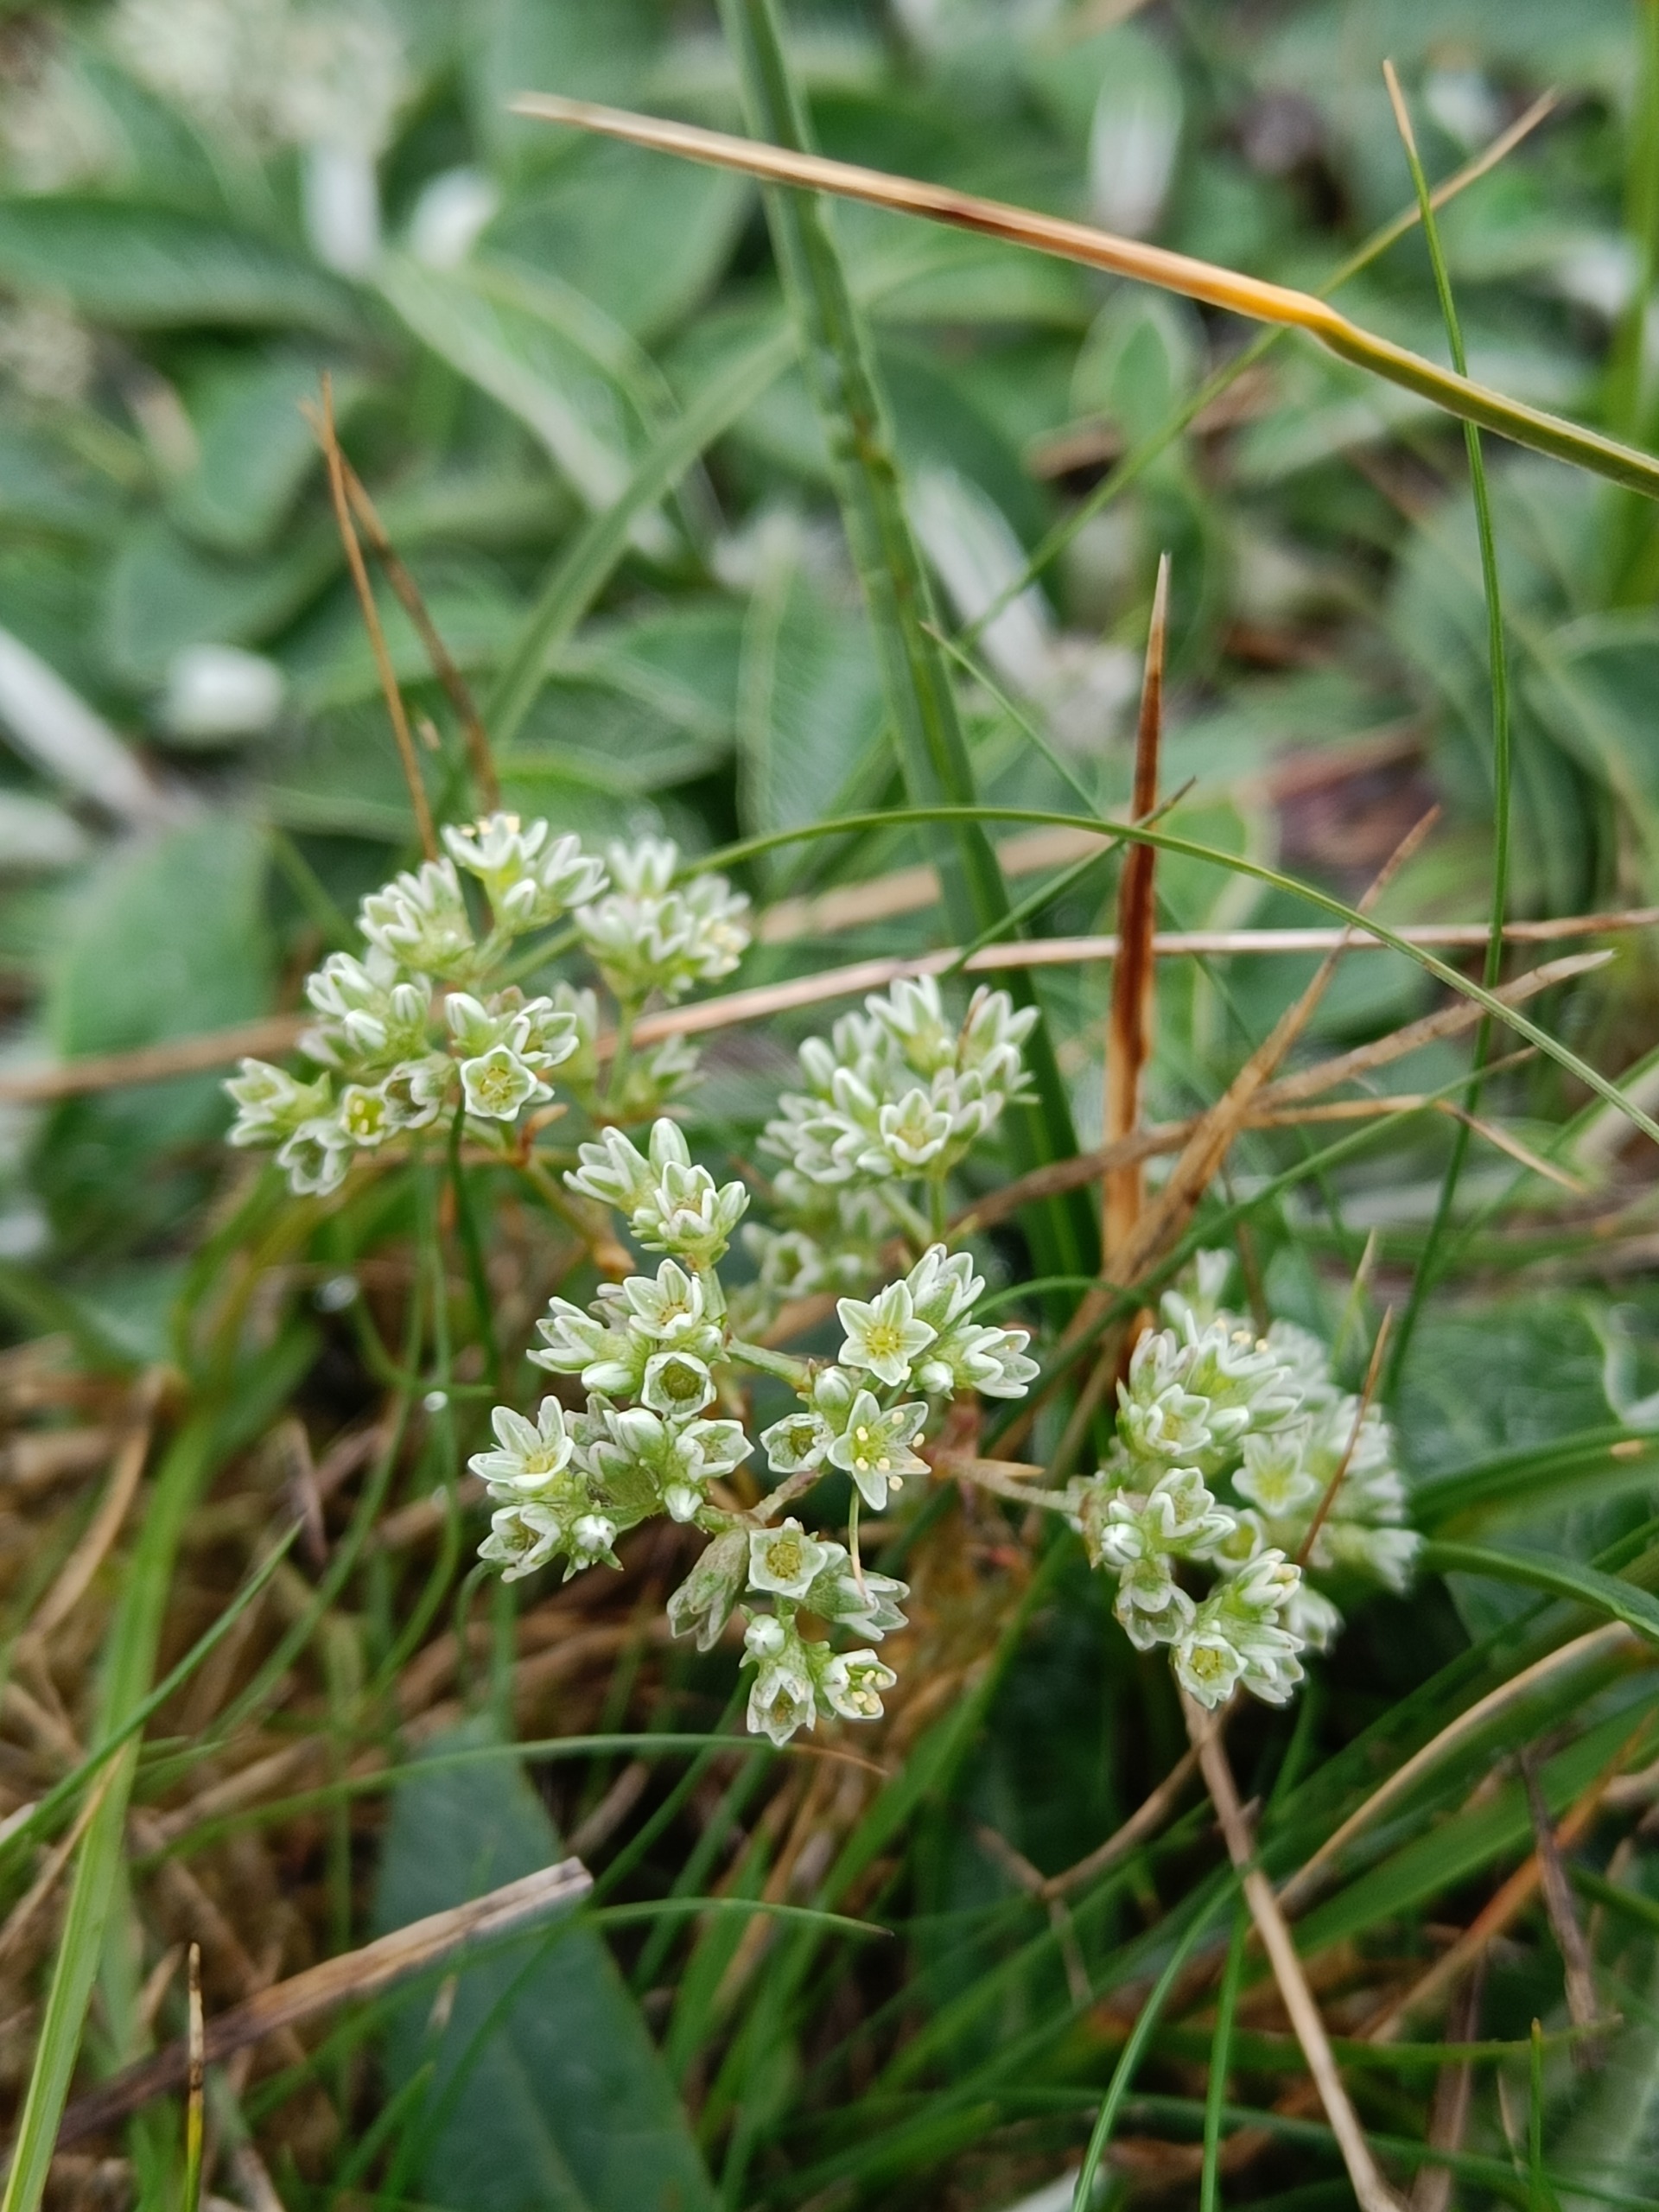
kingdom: Plantae
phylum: Tracheophyta
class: Magnoliopsida
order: Caryophyllales
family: Caryophyllaceae
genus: Scleranthus
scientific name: Scleranthus perennis
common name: Flerårig knavel
